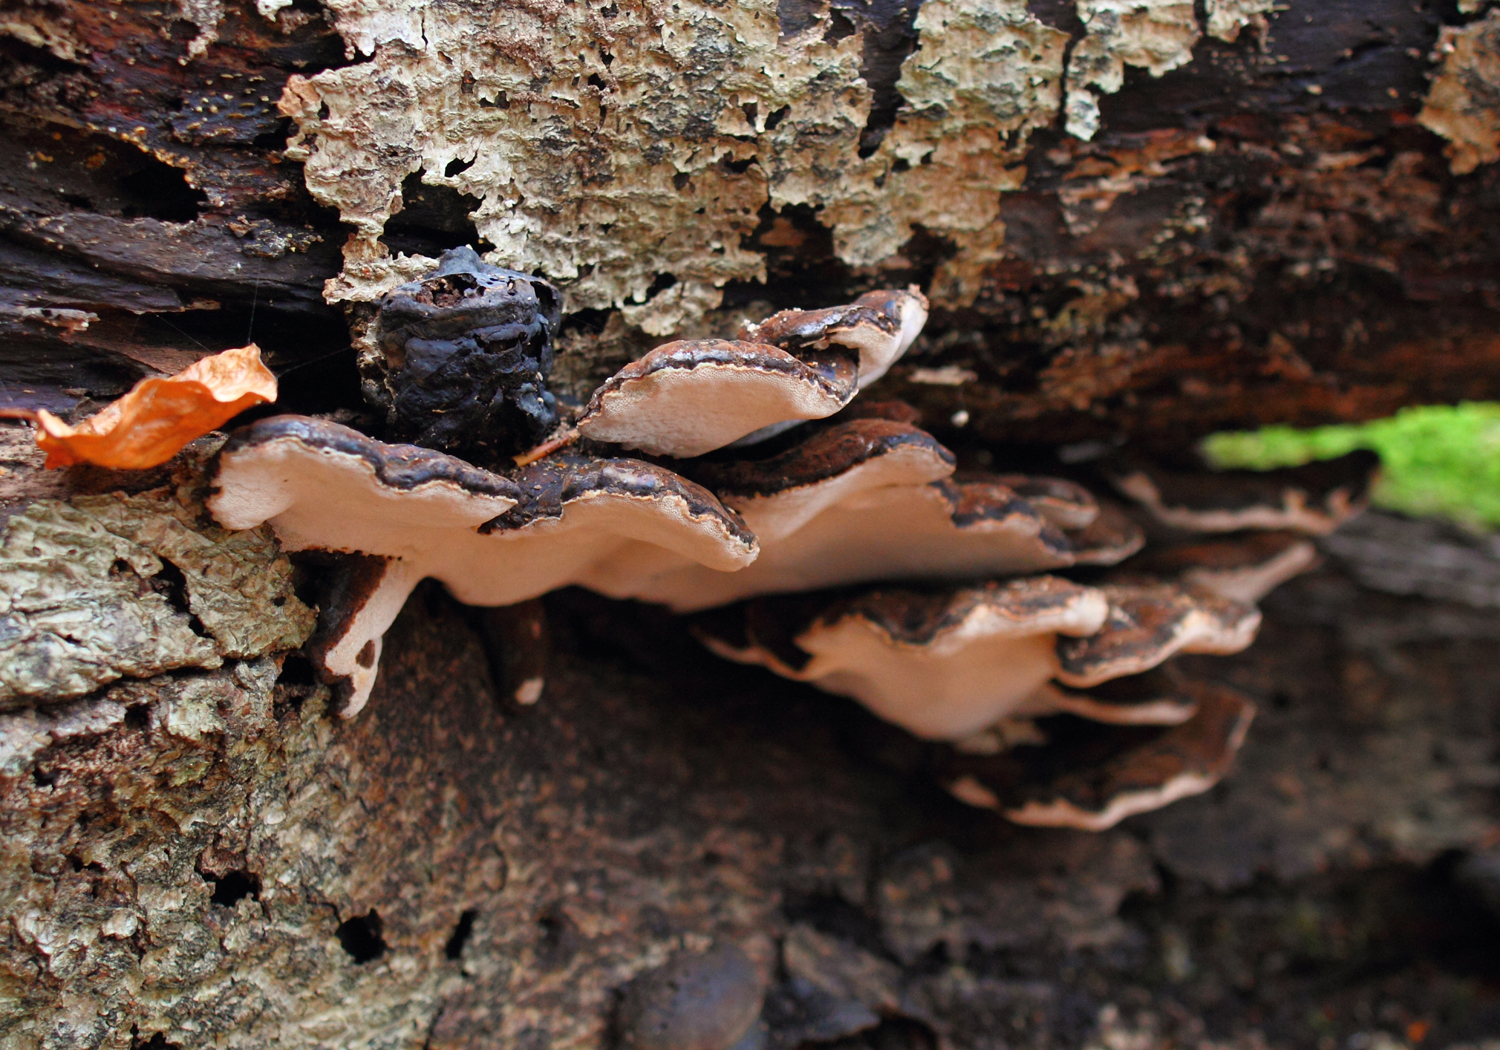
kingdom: Fungi
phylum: Basidiomycota
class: Agaricomycetes
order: Polyporales
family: Ischnodermataceae
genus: Ischnoderma
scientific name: Ischnoderma resinosum
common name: løv-tjæreporesvamp
